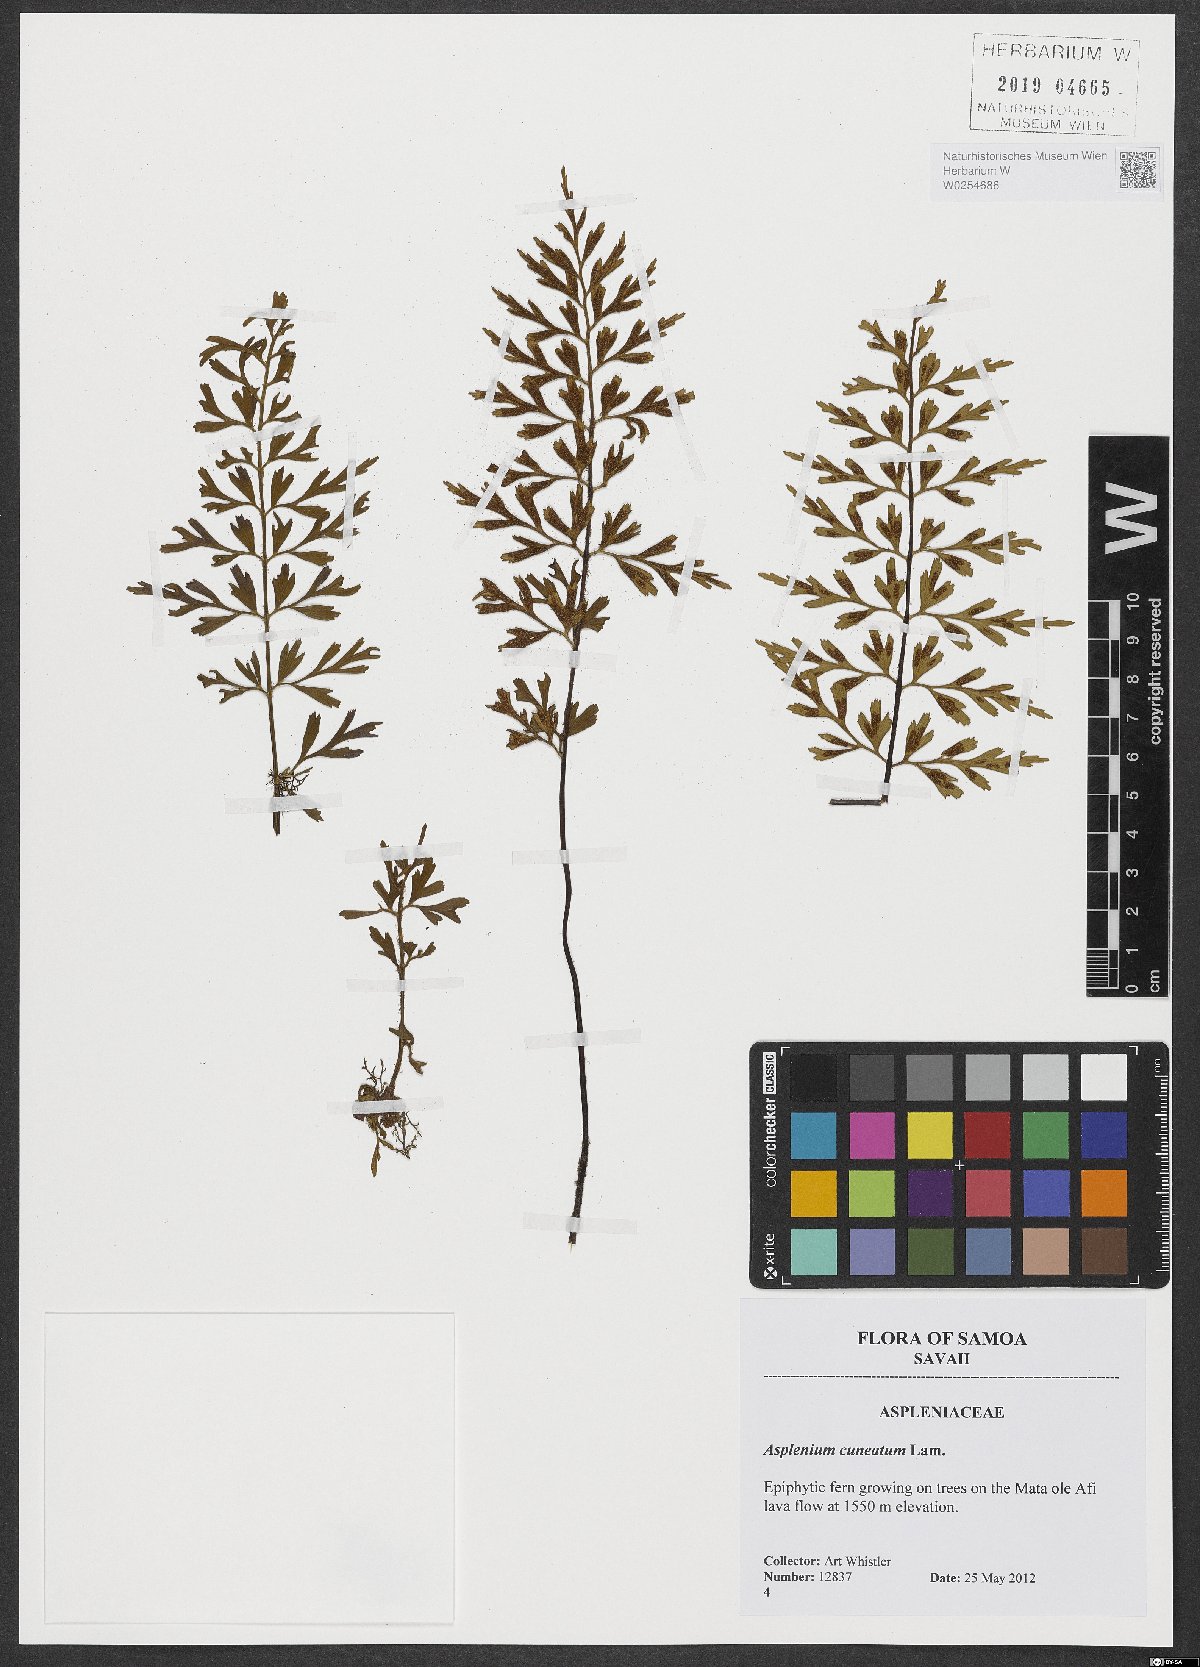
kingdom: Plantae
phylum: Tracheophyta
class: Polypodiopsida
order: Polypodiales
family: Aspleniaceae
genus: Asplenium
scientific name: Asplenium cuneatum
